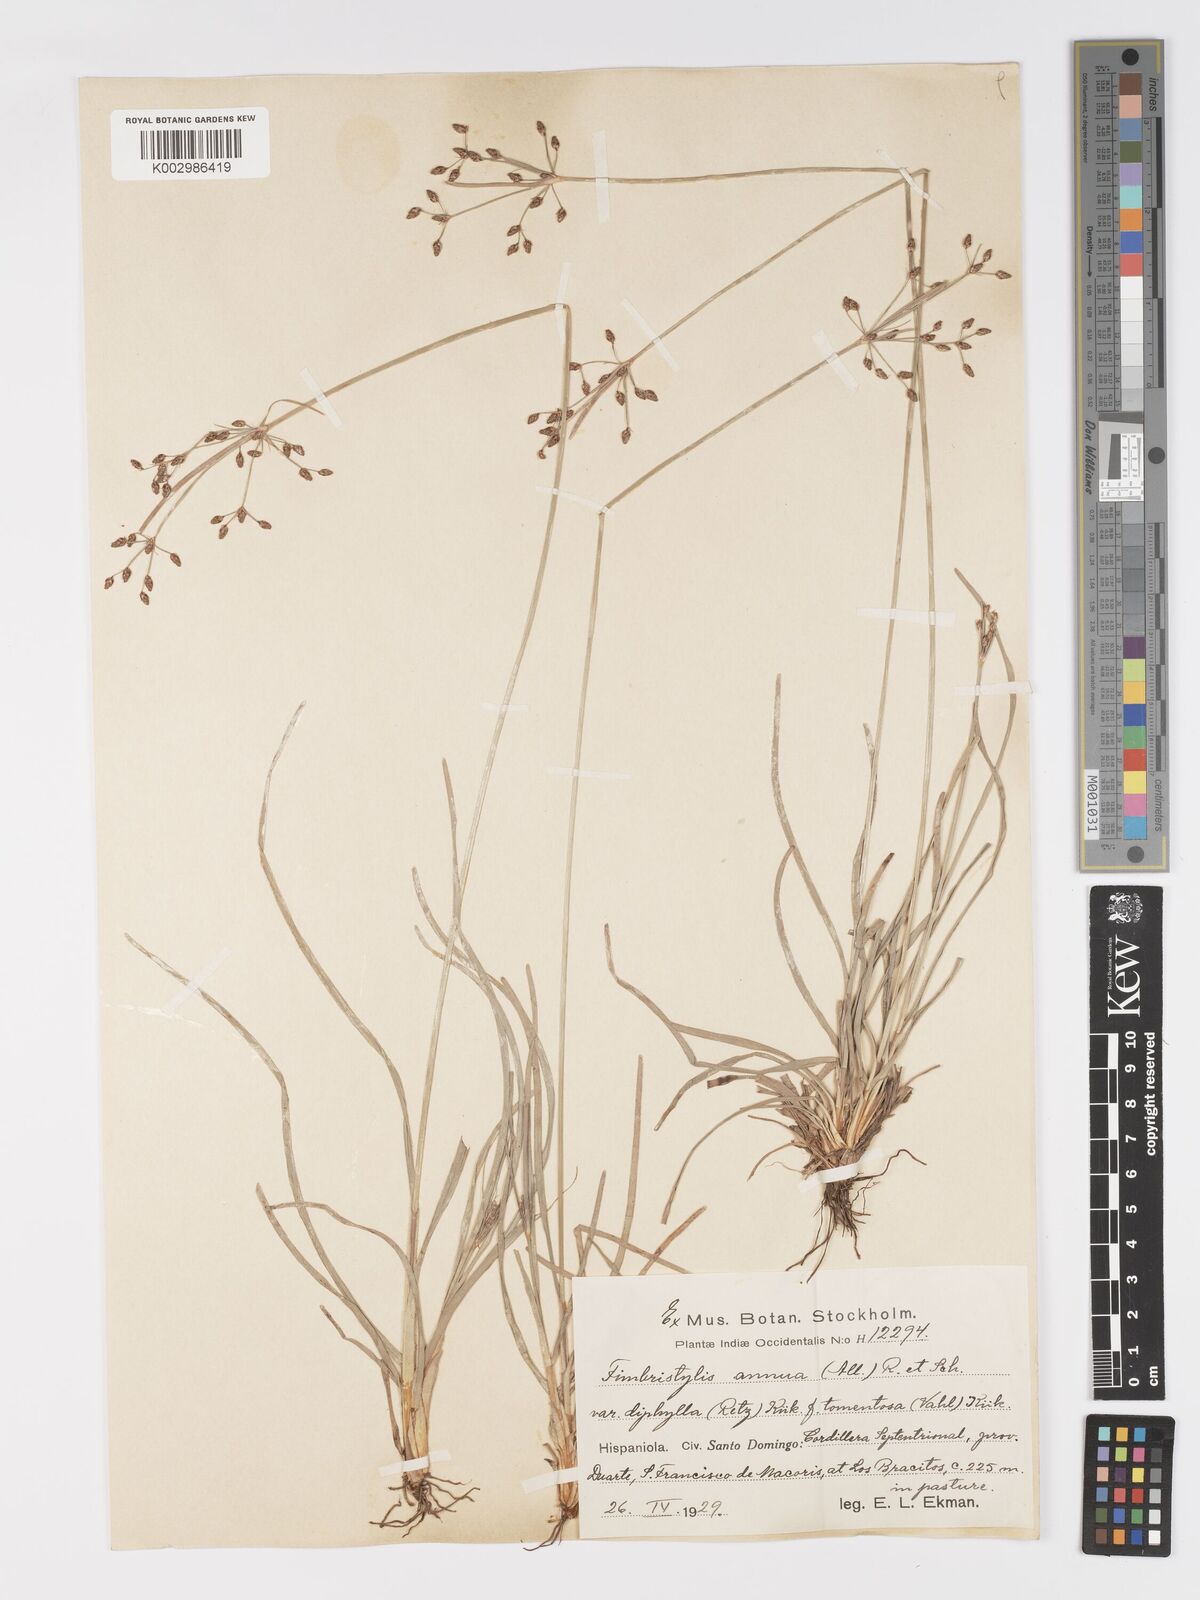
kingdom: Plantae
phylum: Tracheophyta
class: Liliopsida
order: Poales
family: Cyperaceae
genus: Fimbristylis
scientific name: Fimbristylis dichotoma
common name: Forked fimbry
